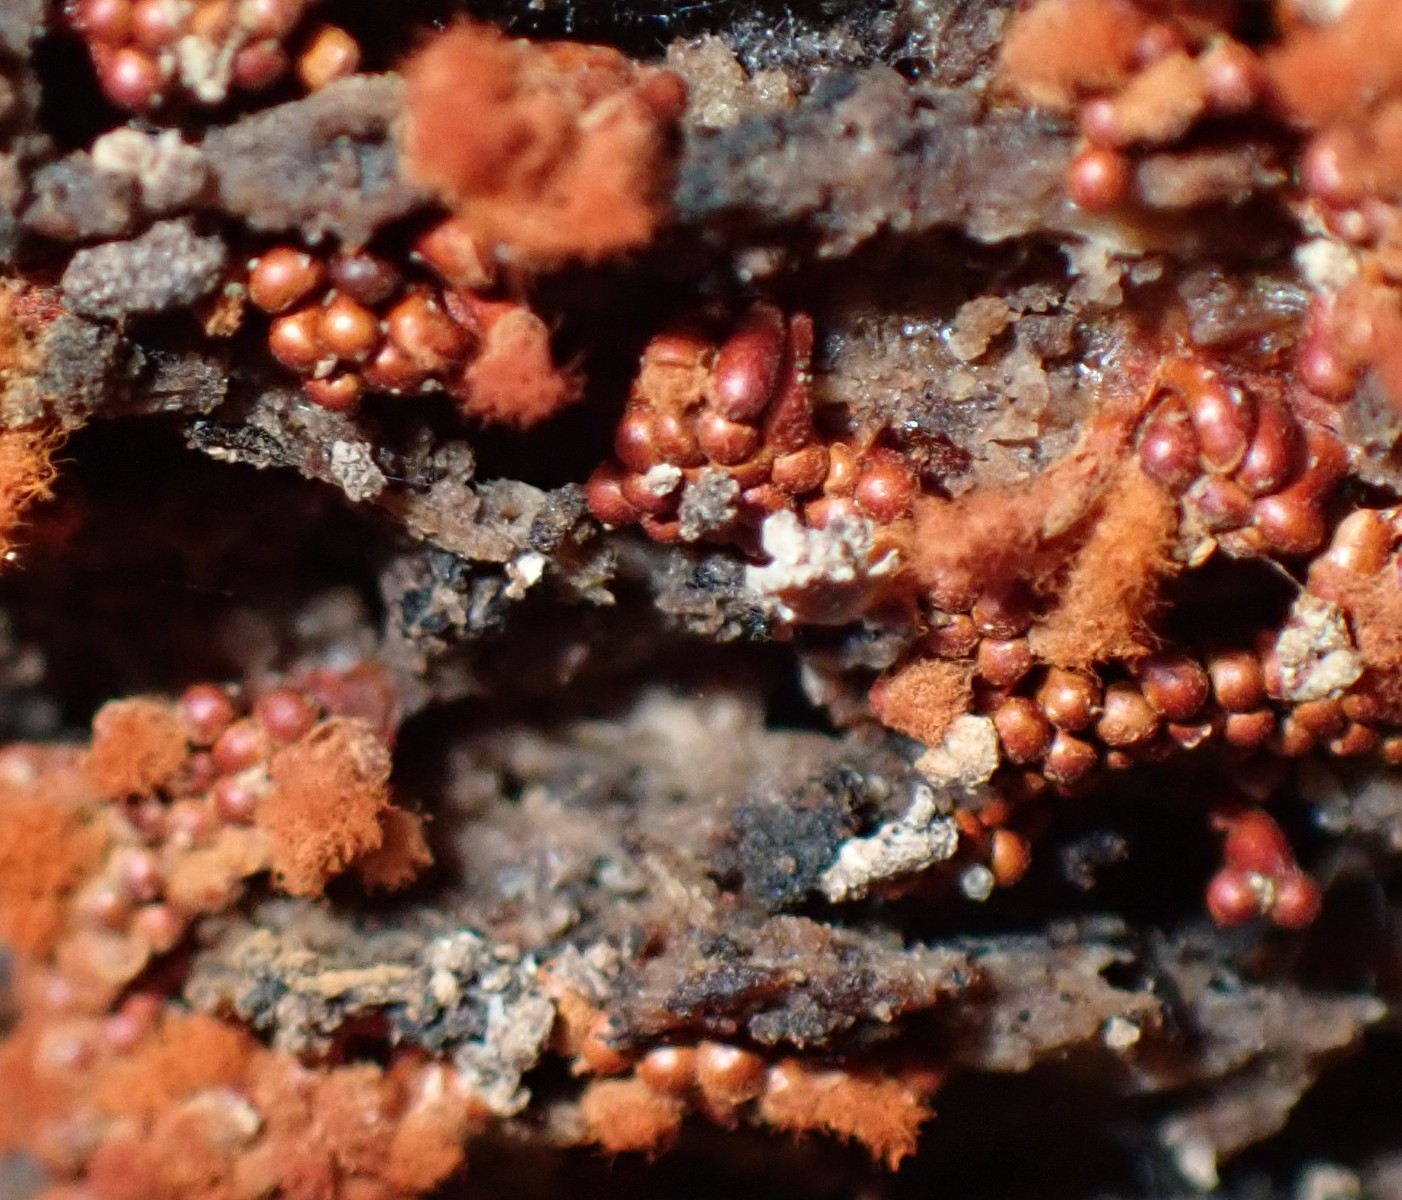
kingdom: Protozoa
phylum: Mycetozoa
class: Myxomycetes
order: Trichiales
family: Trichiaceae
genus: Metatrichia
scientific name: Metatrichia vesparia
